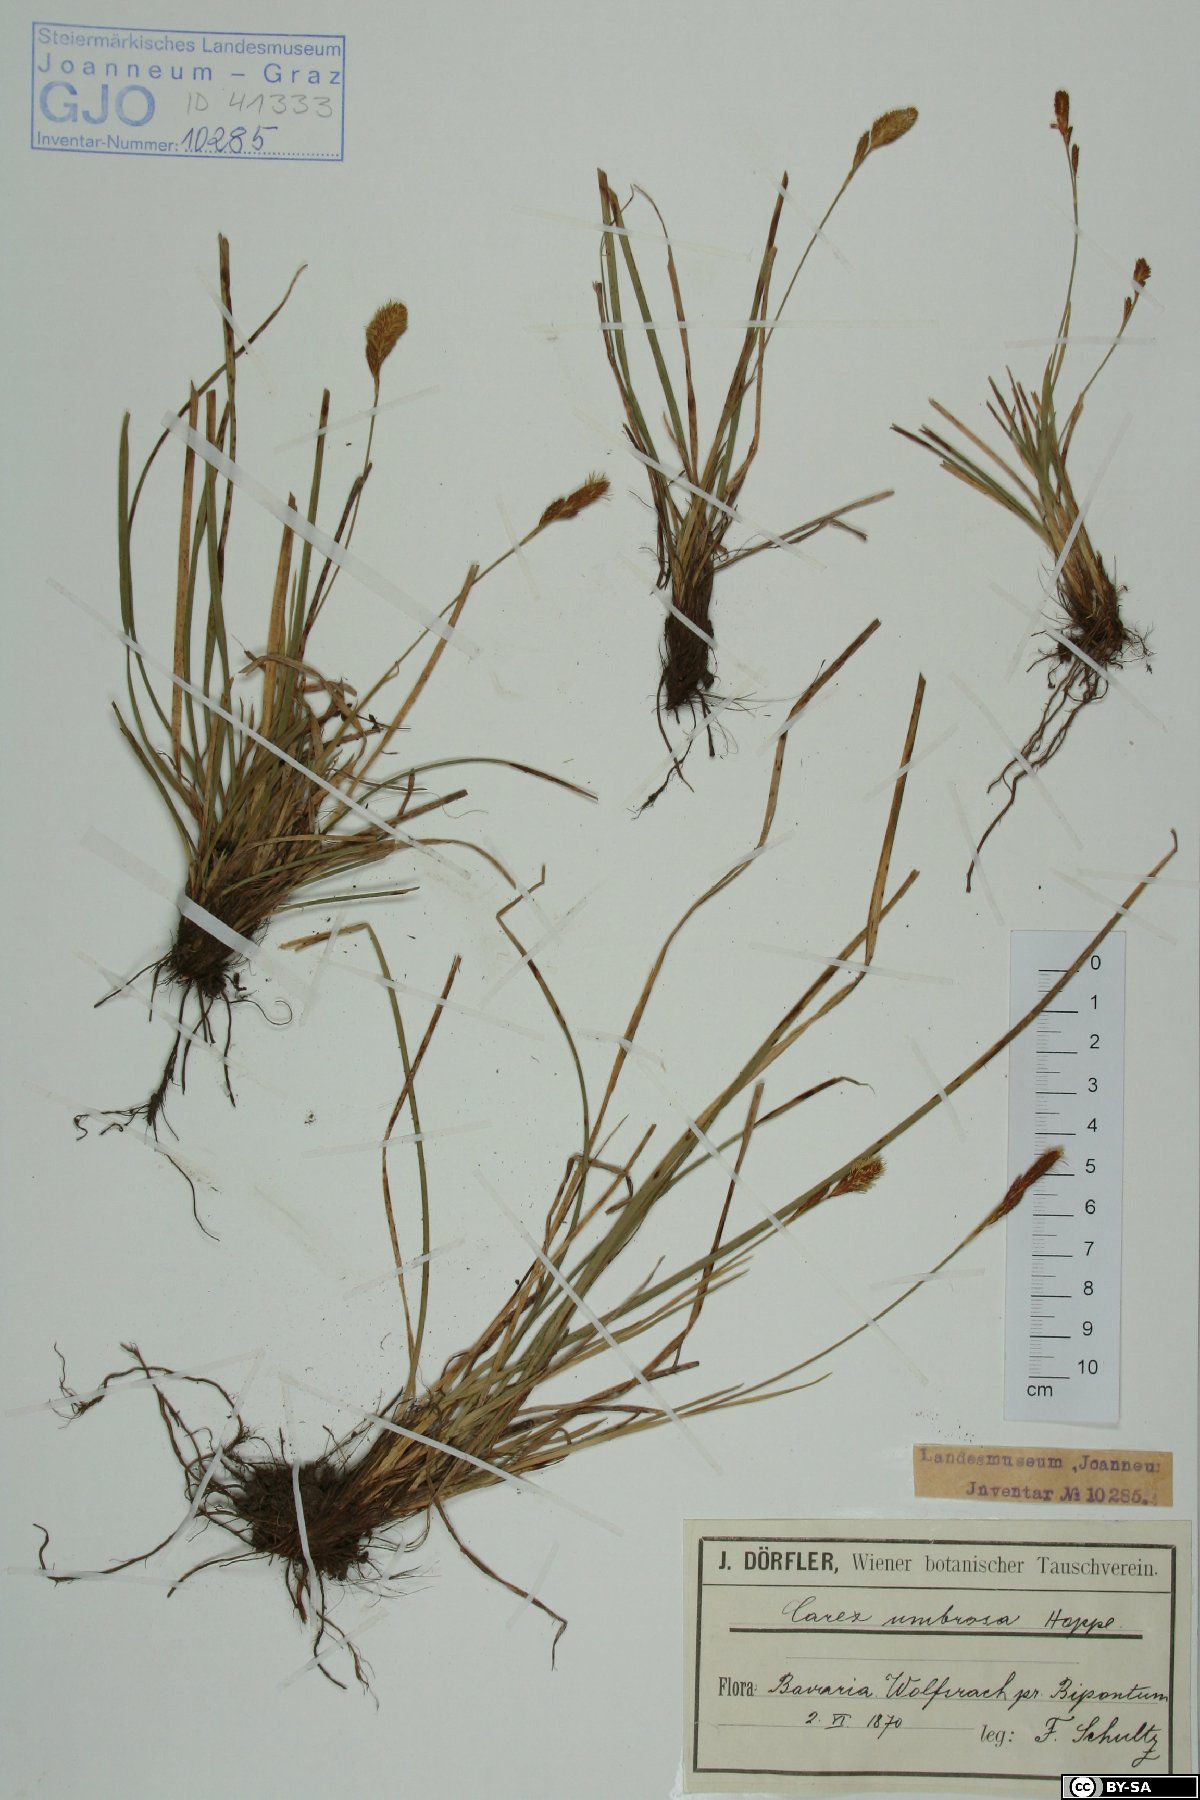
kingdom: Plantae
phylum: Tracheophyta
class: Liliopsida
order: Poales
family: Cyperaceae
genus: Carex
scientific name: Carex umbrosa
